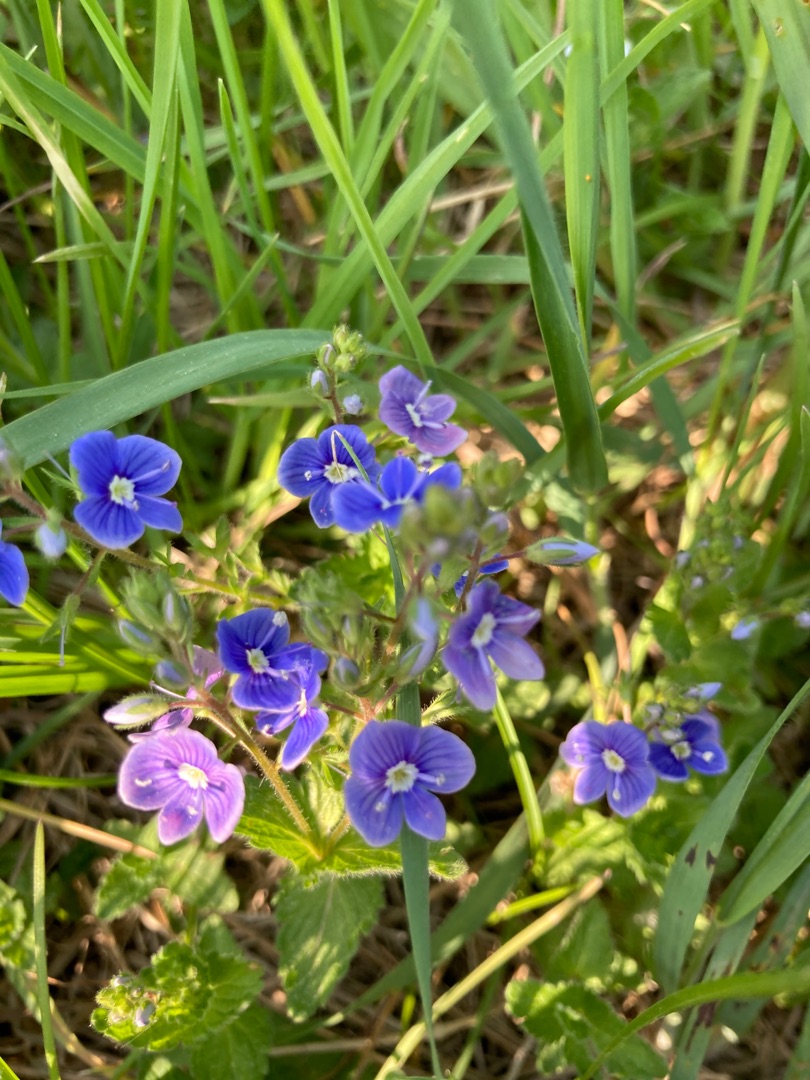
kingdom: Plantae
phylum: Tracheophyta
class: Magnoliopsida
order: Lamiales
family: Plantaginaceae
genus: Veronica
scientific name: Veronica chamaedrys
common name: Tveskægget ærenpris
